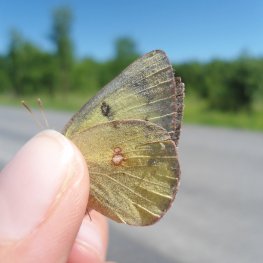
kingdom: Animalia
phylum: Arthropoda
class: Insecta
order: Lepidoptera
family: Pieridae
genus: Colias
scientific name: Colias philodice
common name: Clouded Sulphur
